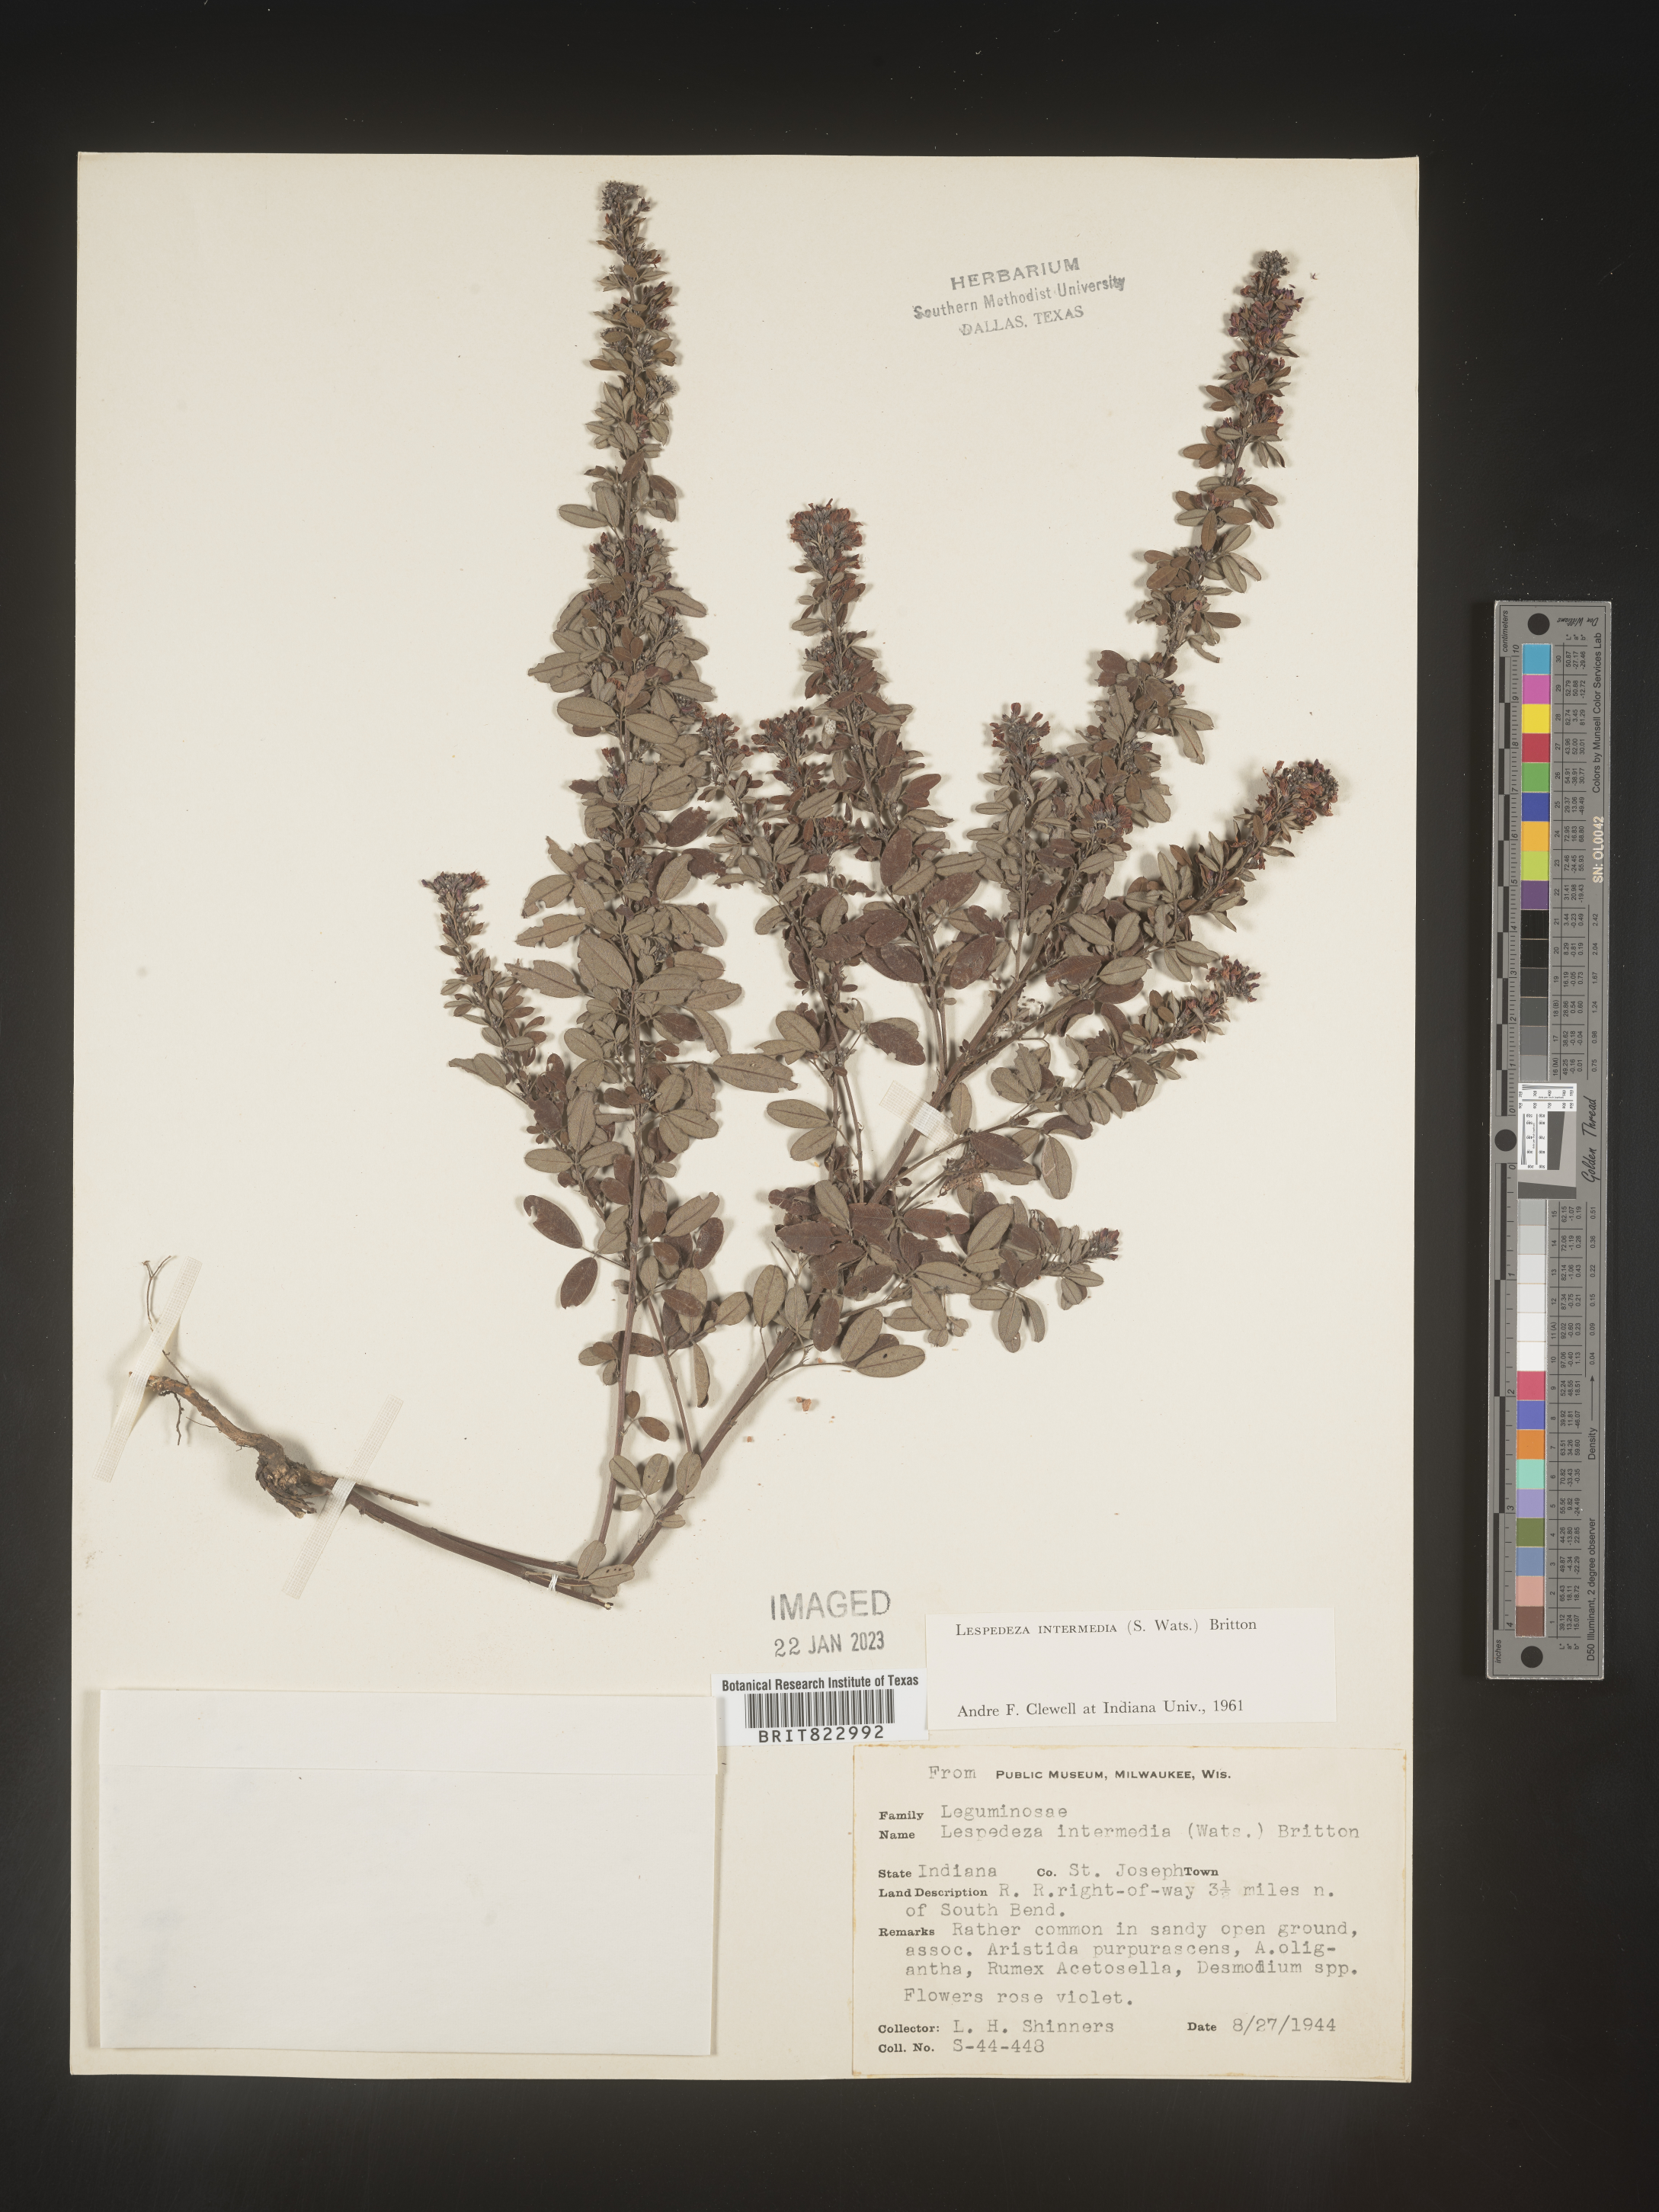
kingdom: Plantae
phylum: Tracheophyta
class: Magnoliopsida
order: Fabales
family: Fabaceae
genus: Lespedeza
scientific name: Lespedeza
